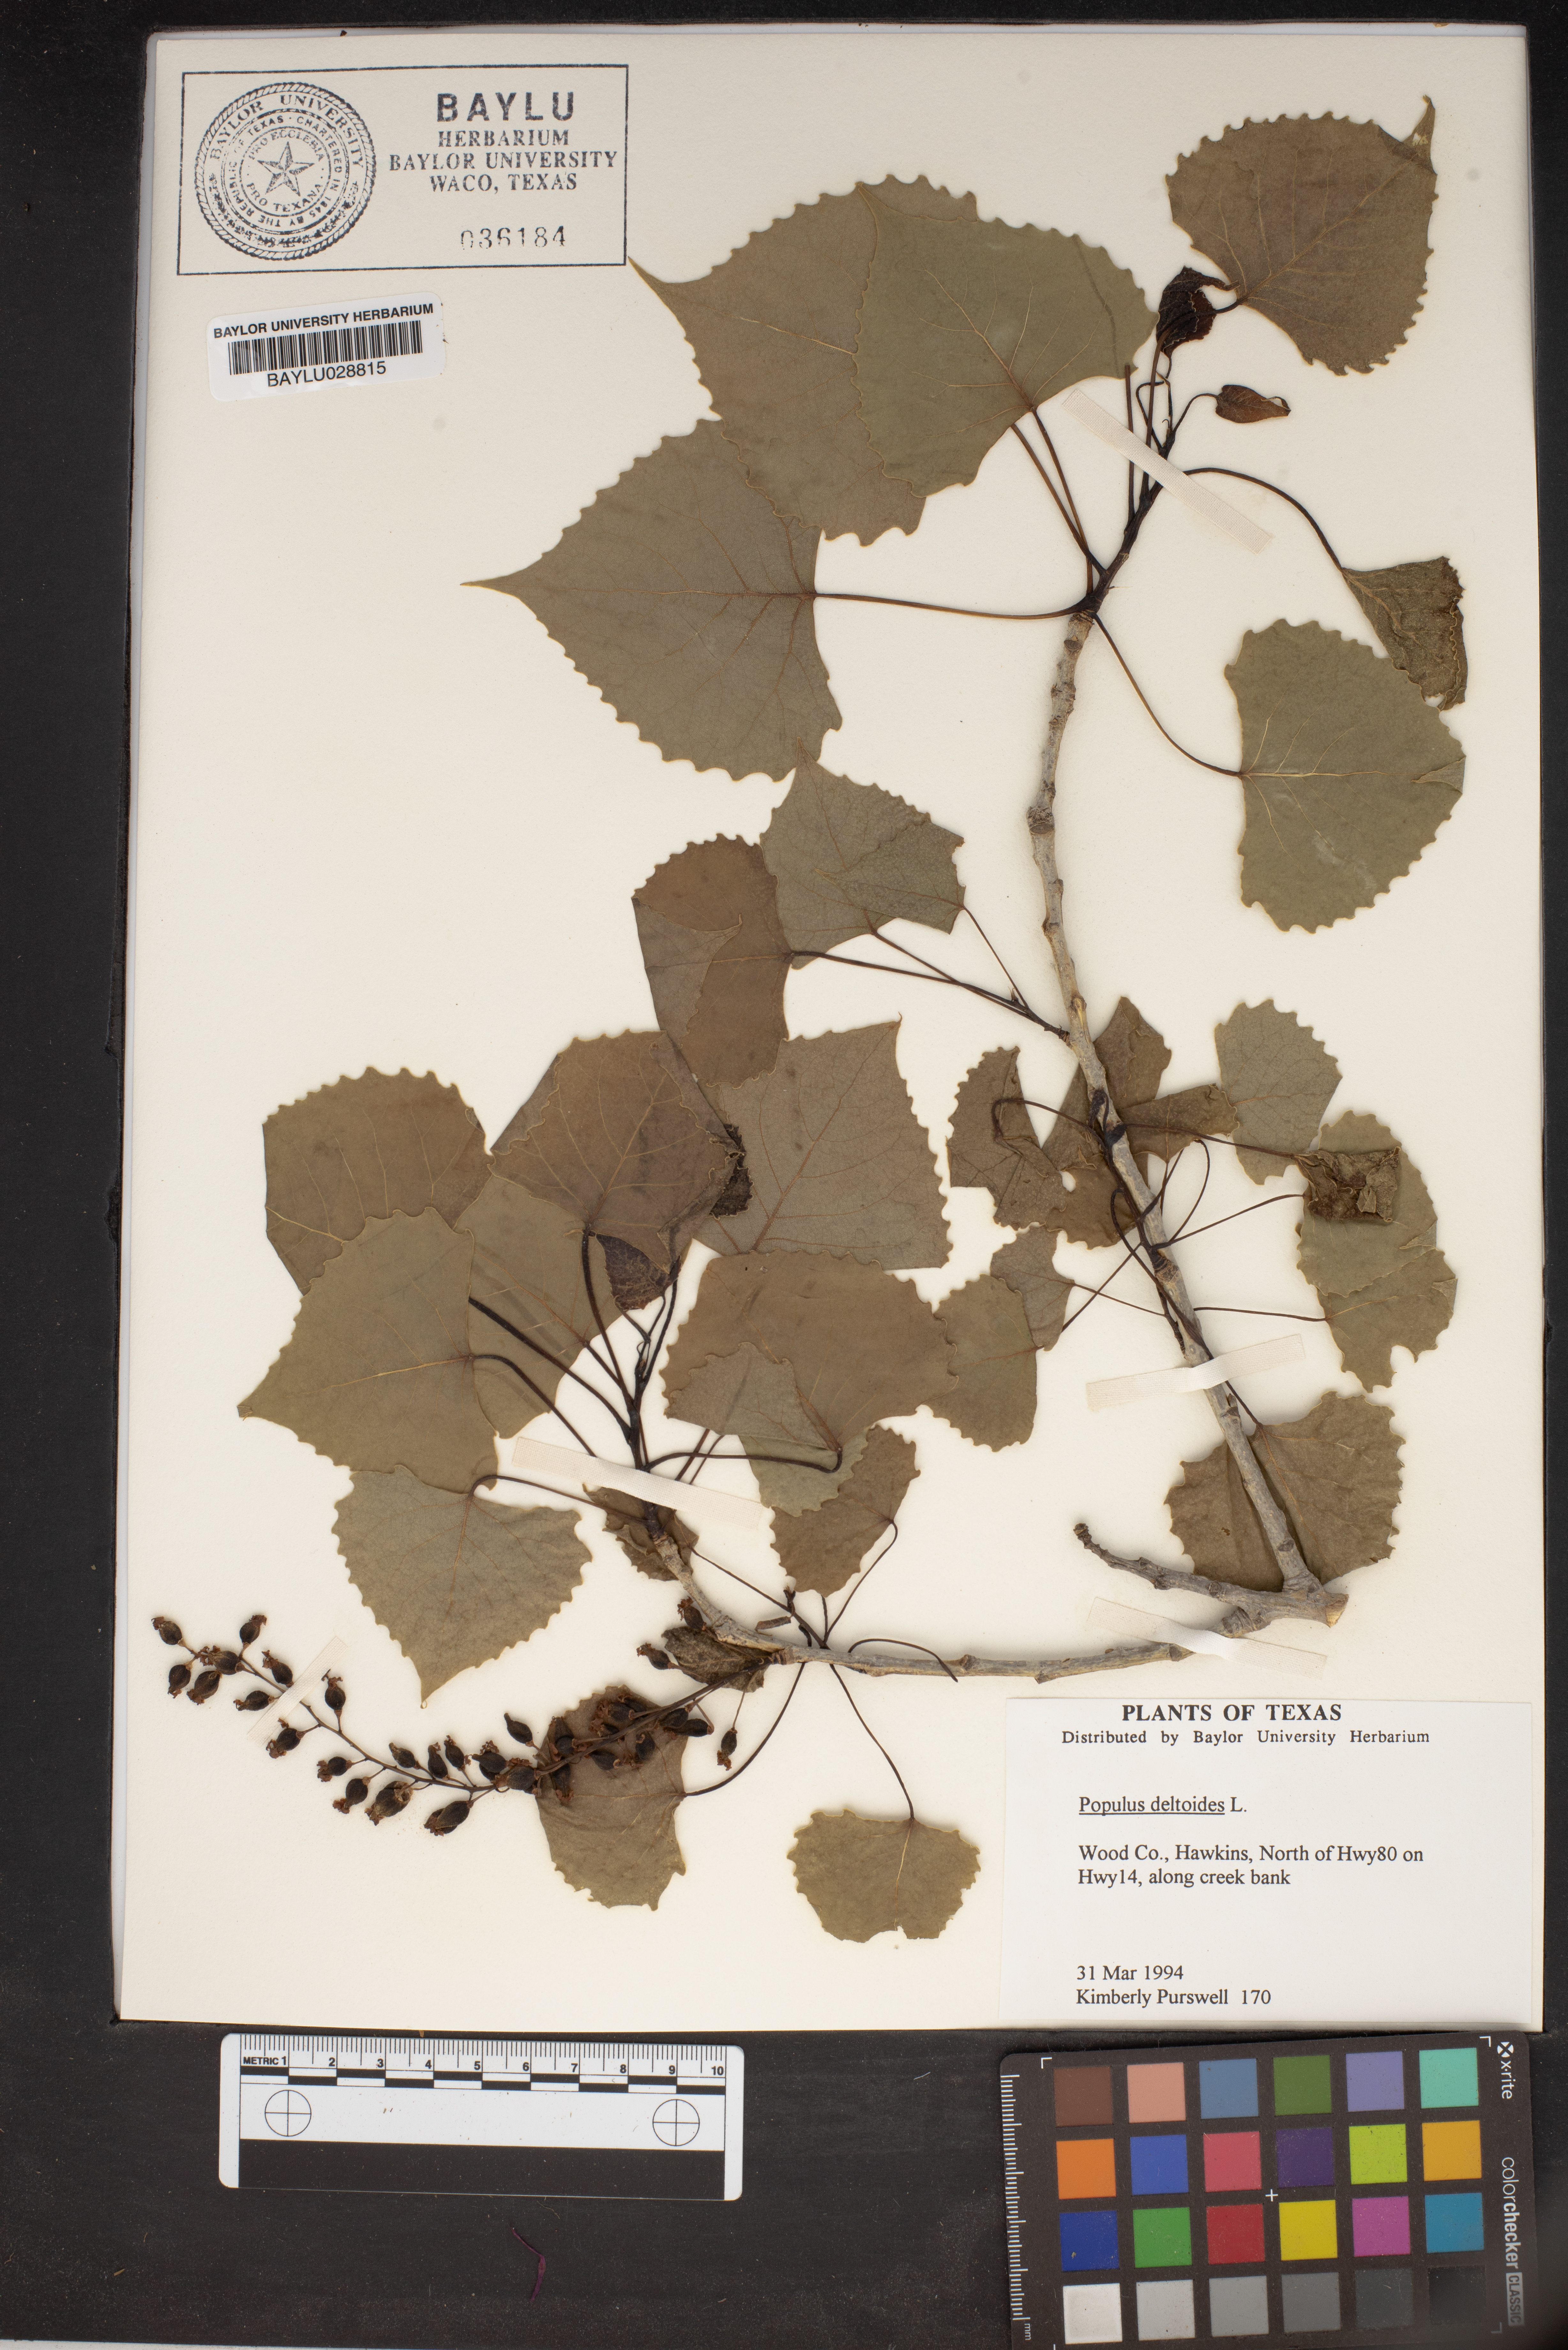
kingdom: Plantae
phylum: Tracheophyta
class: Magnoliopsida
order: Malpighiales
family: Salicaceae
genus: Populus
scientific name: Populus deltoides
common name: Eastern cottonwood
